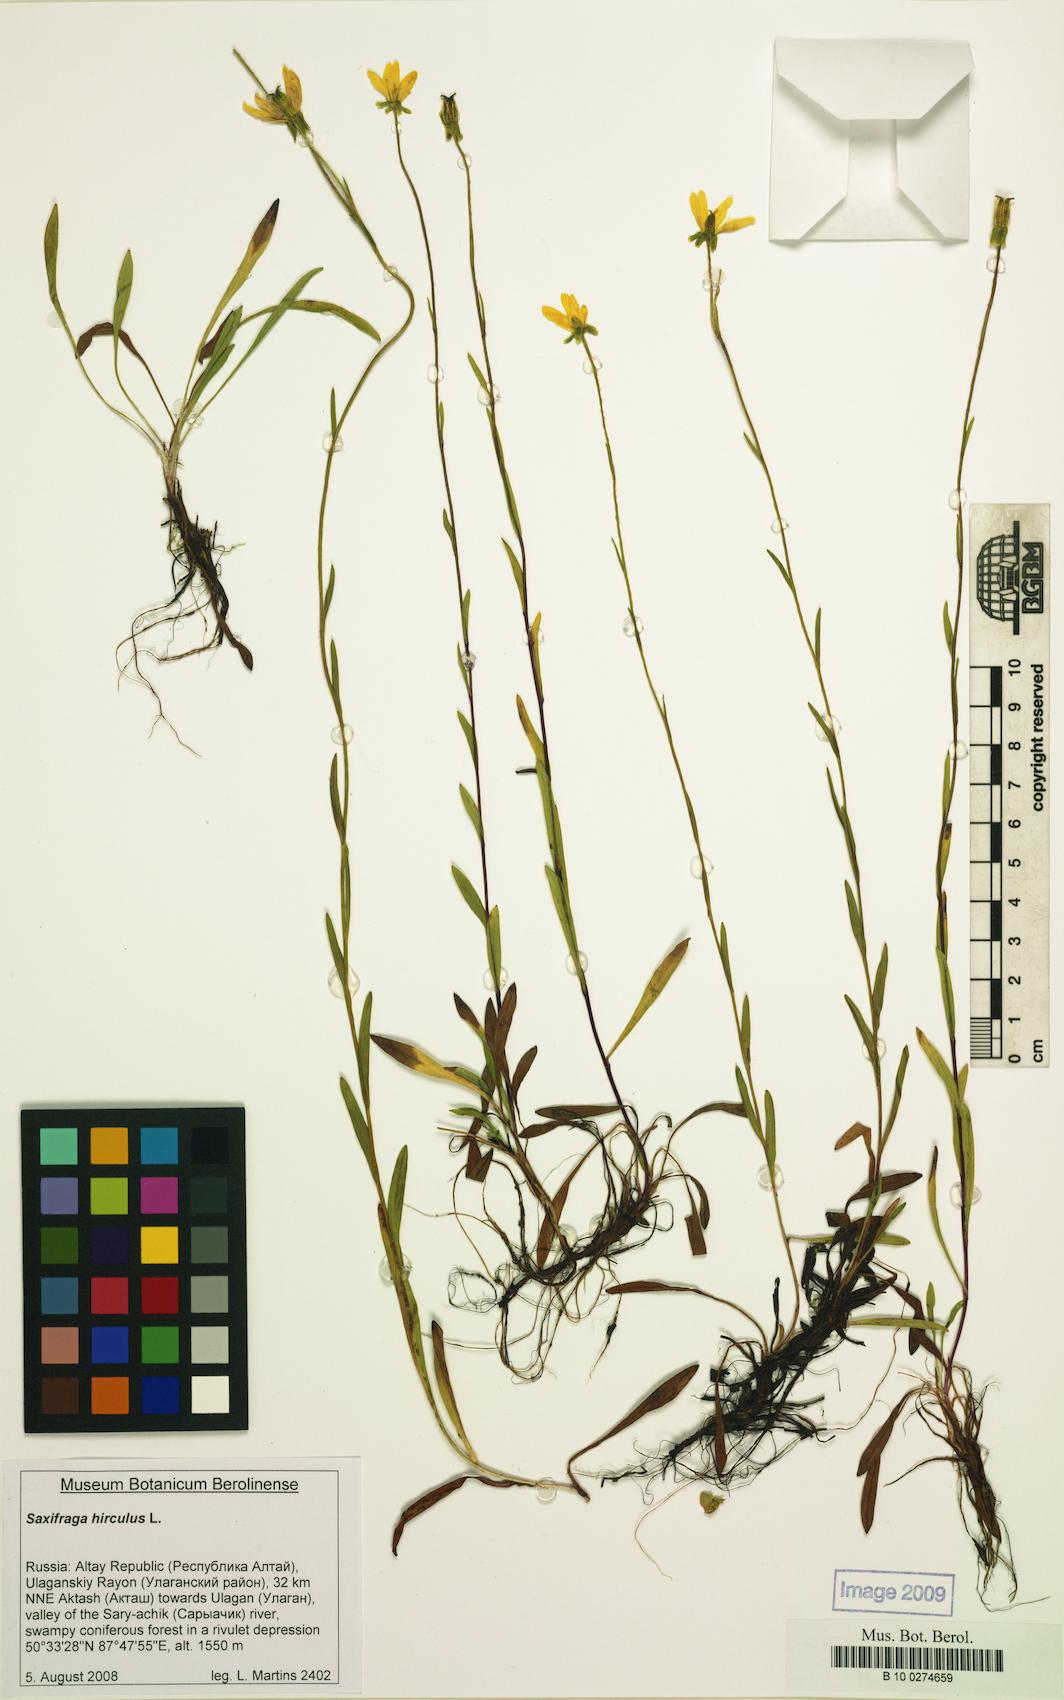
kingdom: Plantae
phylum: Tracheophyta
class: Magnoliopsida
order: Saxifragales
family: Saxifragaceae
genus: Saxifraga
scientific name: Saxifraga hirculus
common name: Yellow marsh saxifrage
